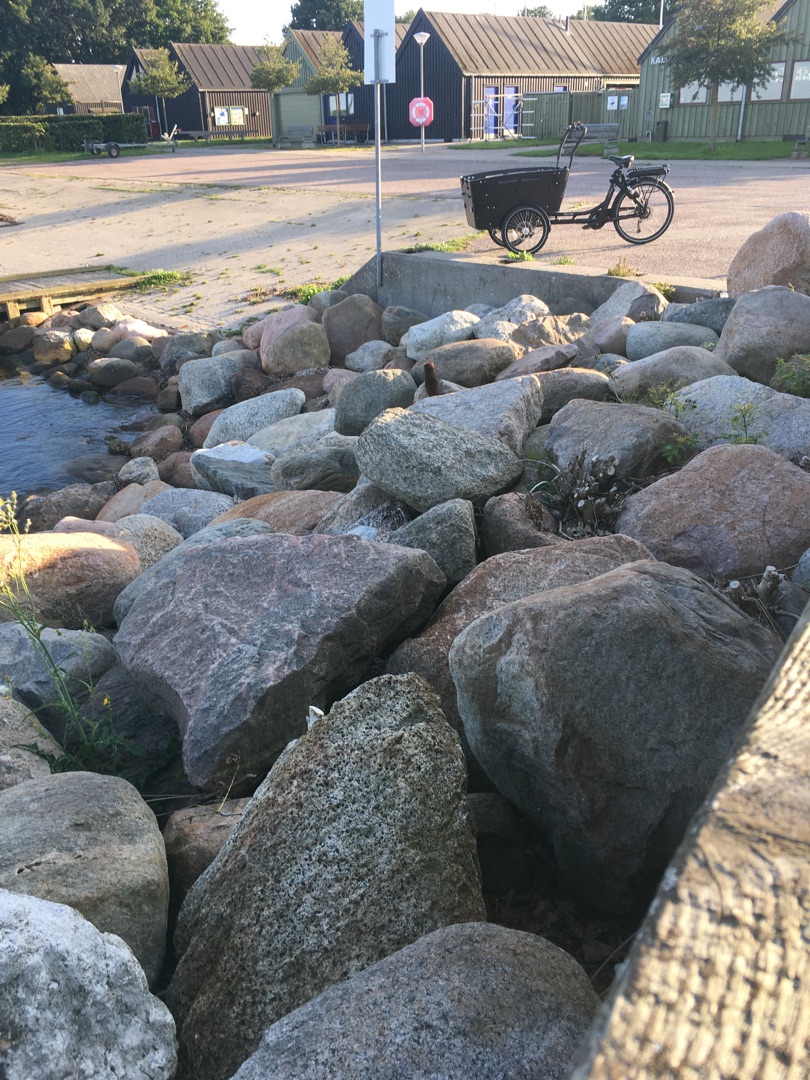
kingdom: Animalia
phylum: Chordata
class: Mammalia
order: Carnivora
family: Mustelidae
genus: Mustela
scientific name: Mustela vison
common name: Mink
